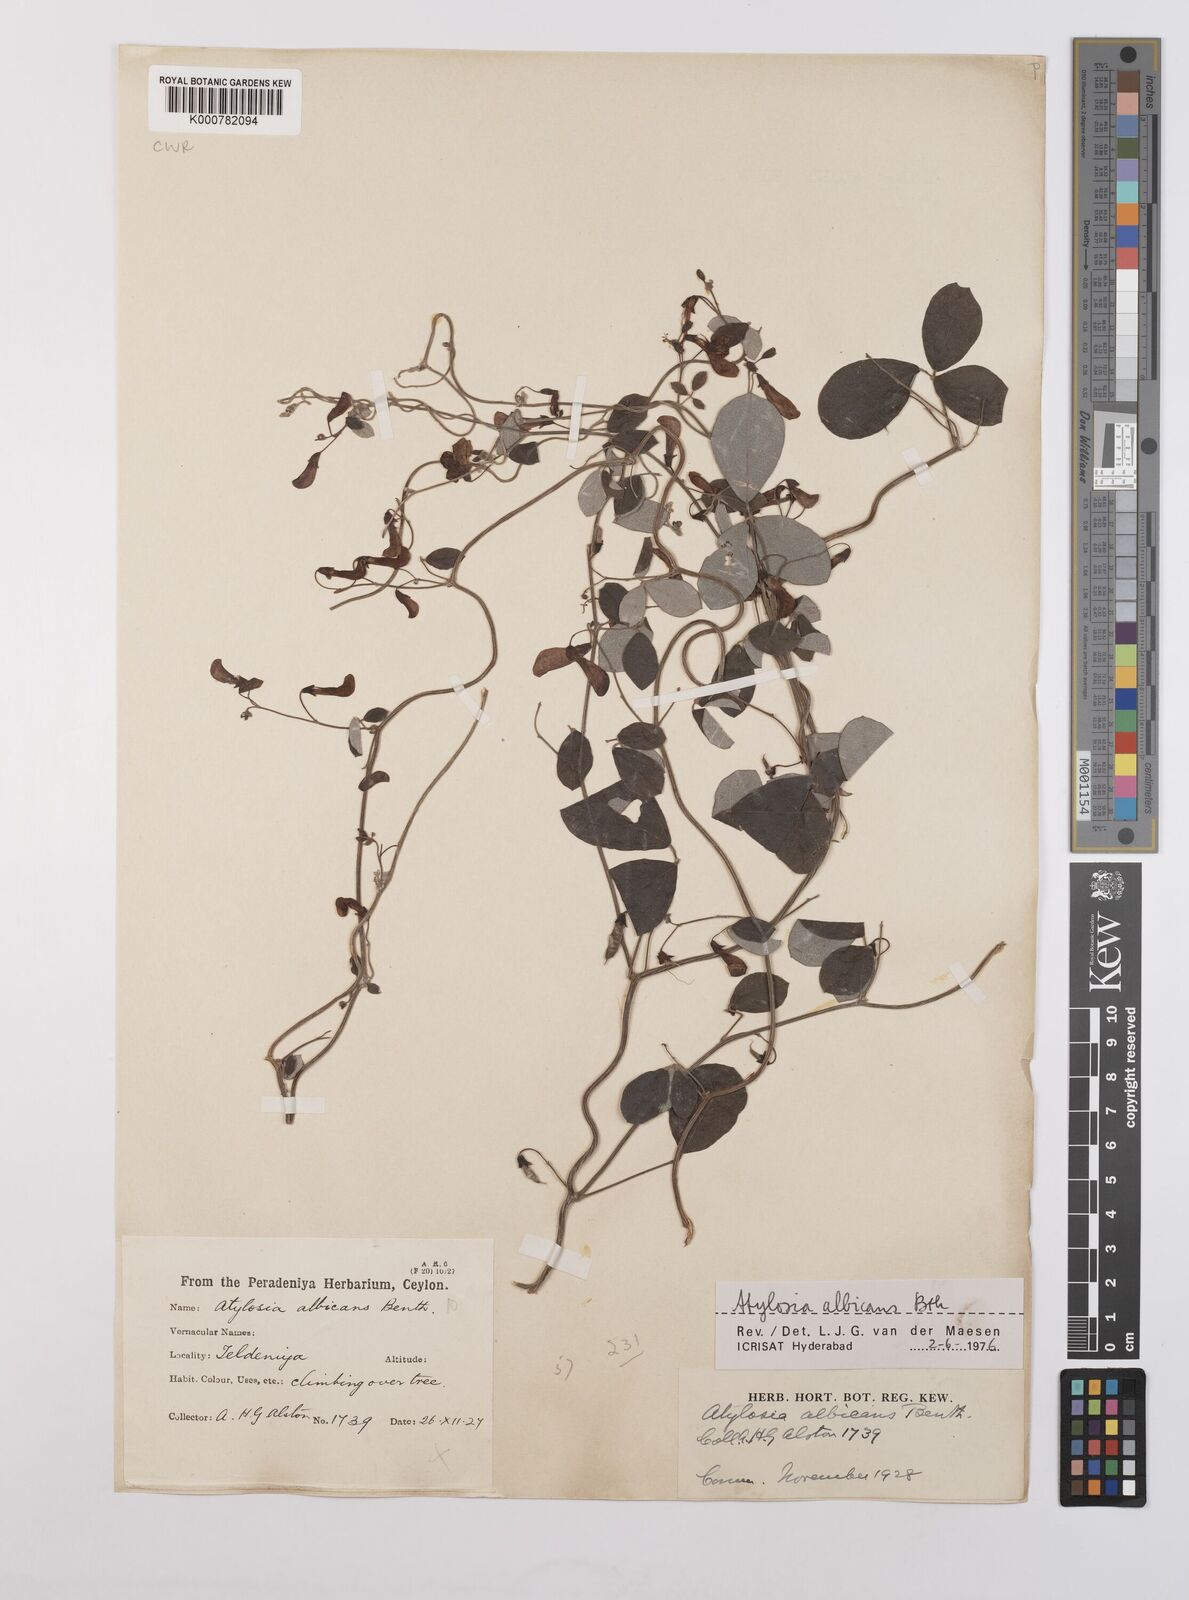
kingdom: Plantae
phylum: Tracheophyta
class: Magnoliopsida
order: Fabales
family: Fabaceae
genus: Cajanus
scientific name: Cajanus
